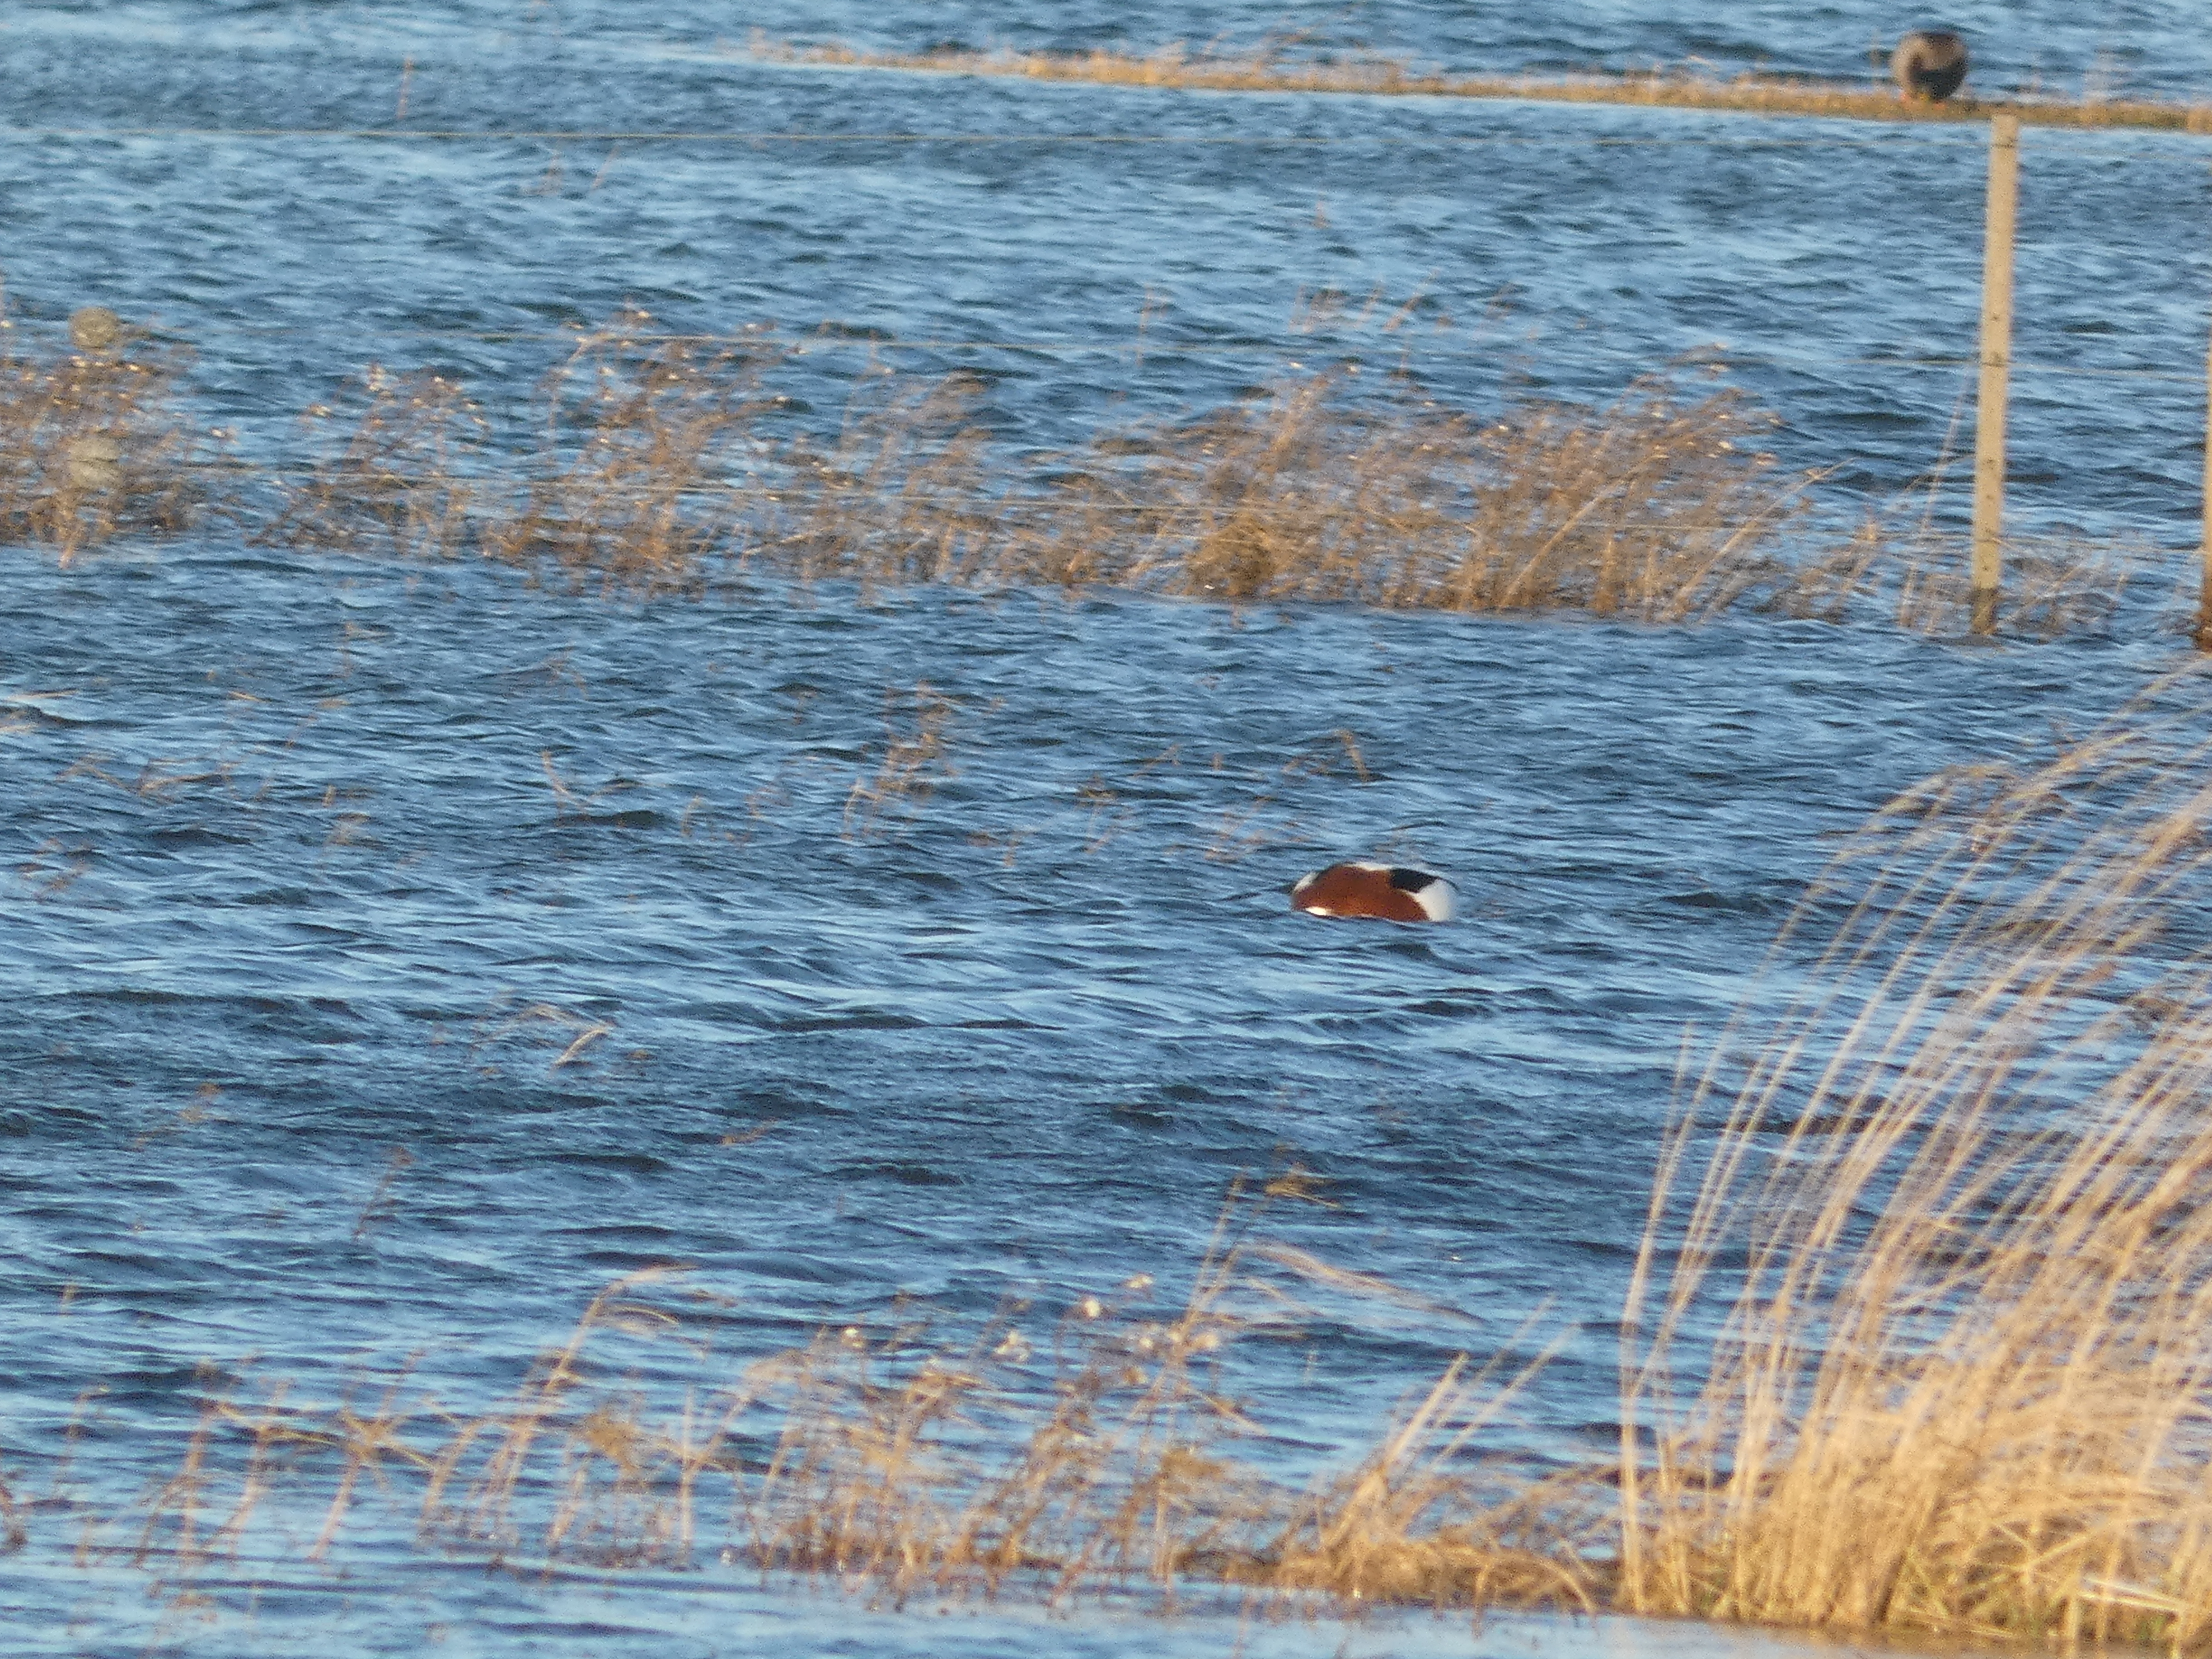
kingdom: Animalia
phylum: Chordata
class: Aves
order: Anseriformes
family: Anatidae
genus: Tadorna
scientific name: Tadorna tadorna
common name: Gravand
